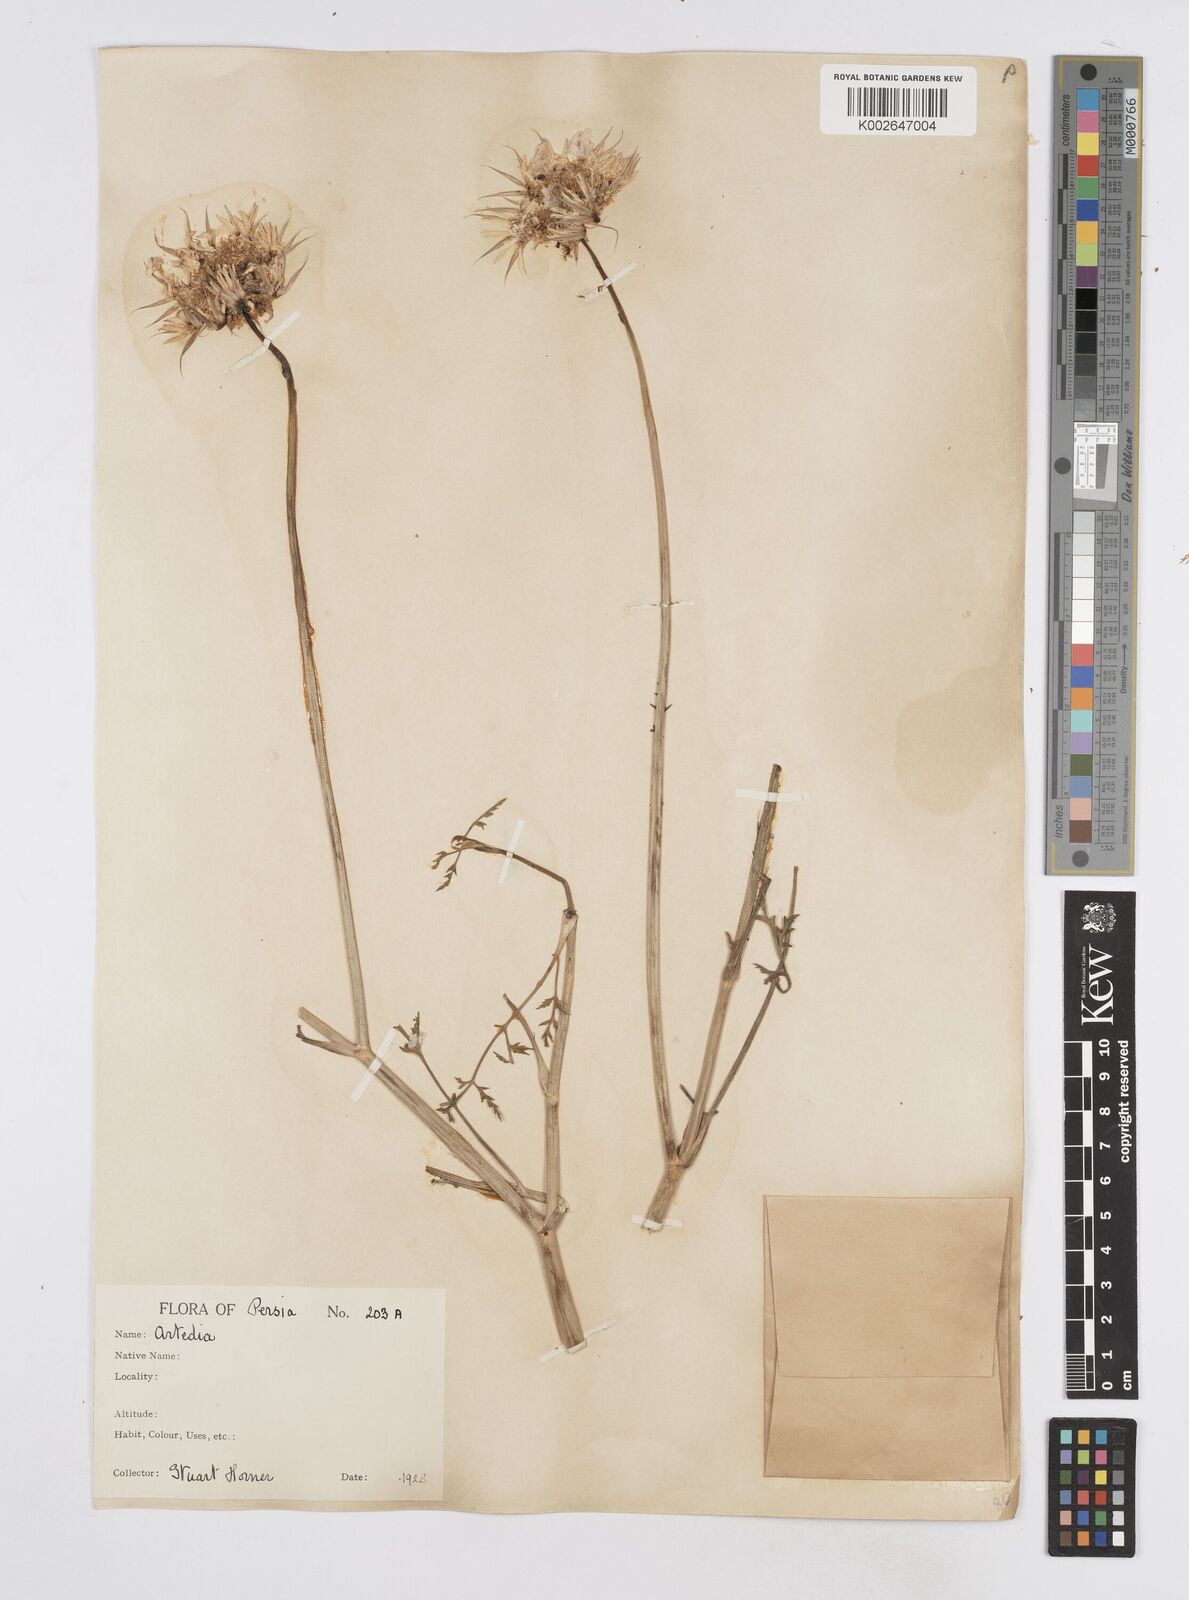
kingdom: Plantae
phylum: Tracheophyta
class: Magnoliopsida
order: Apiales
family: Apiaceae
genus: Dicyclophora
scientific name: Dicyclophora persica
